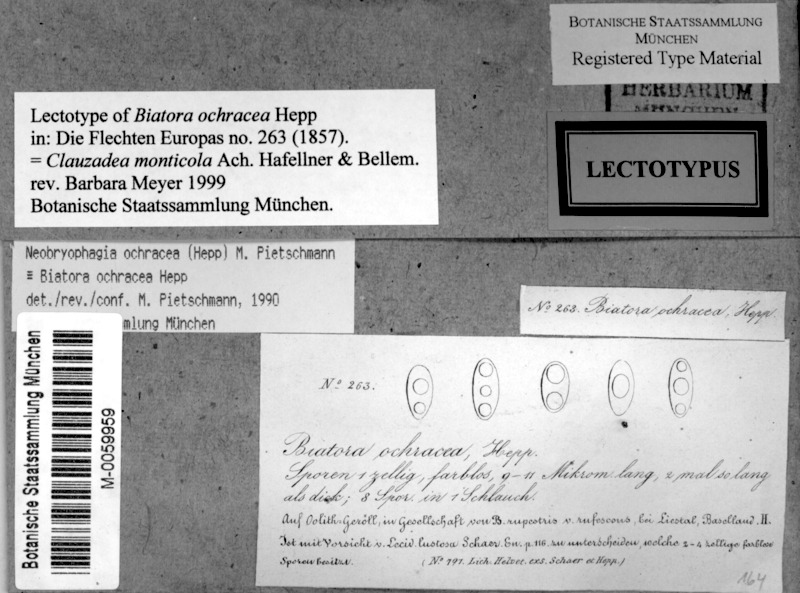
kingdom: Fungi
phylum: Ascomycota
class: Lecanoromycetes
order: Lecideales
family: Lecideaceae
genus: Clauzadea
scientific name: Clauzadea monticola
